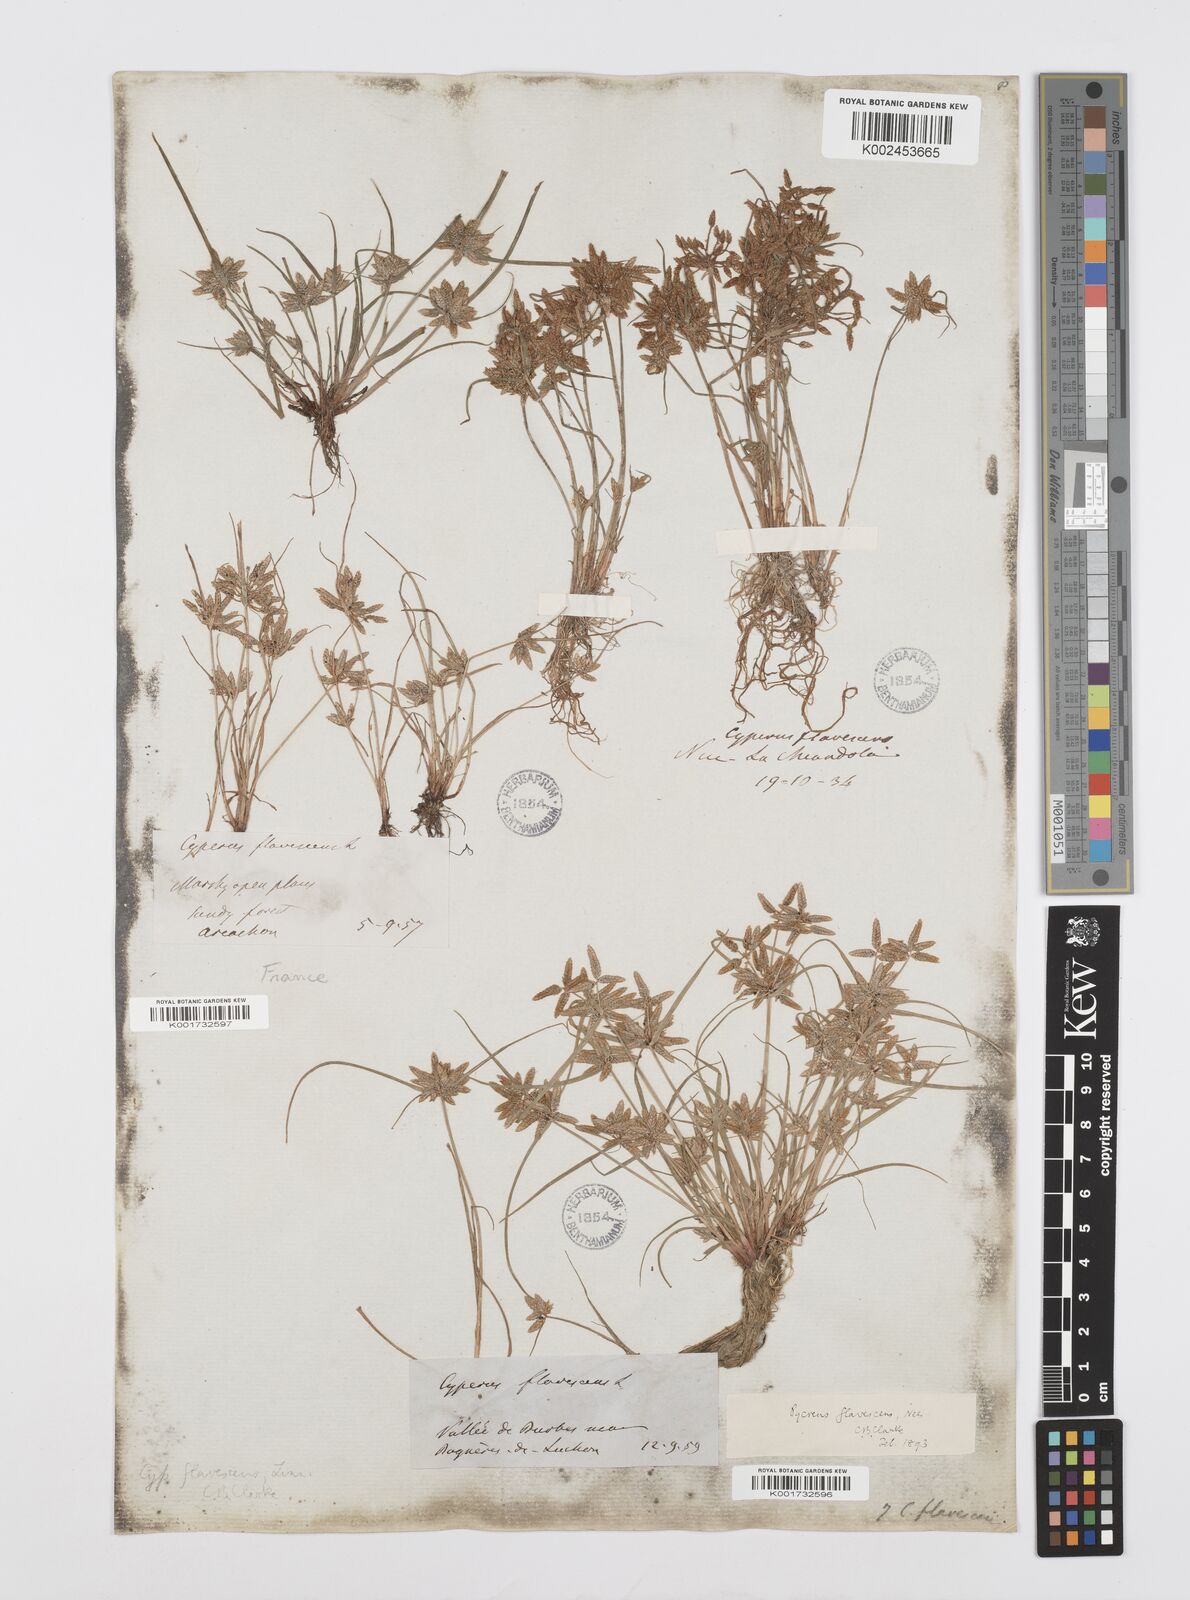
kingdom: Plantae
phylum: Tracheophyta
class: Liliopsida
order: Poales
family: Cyperaceae
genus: Cyperus
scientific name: Cyperus flavescens
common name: Yellow galingale
